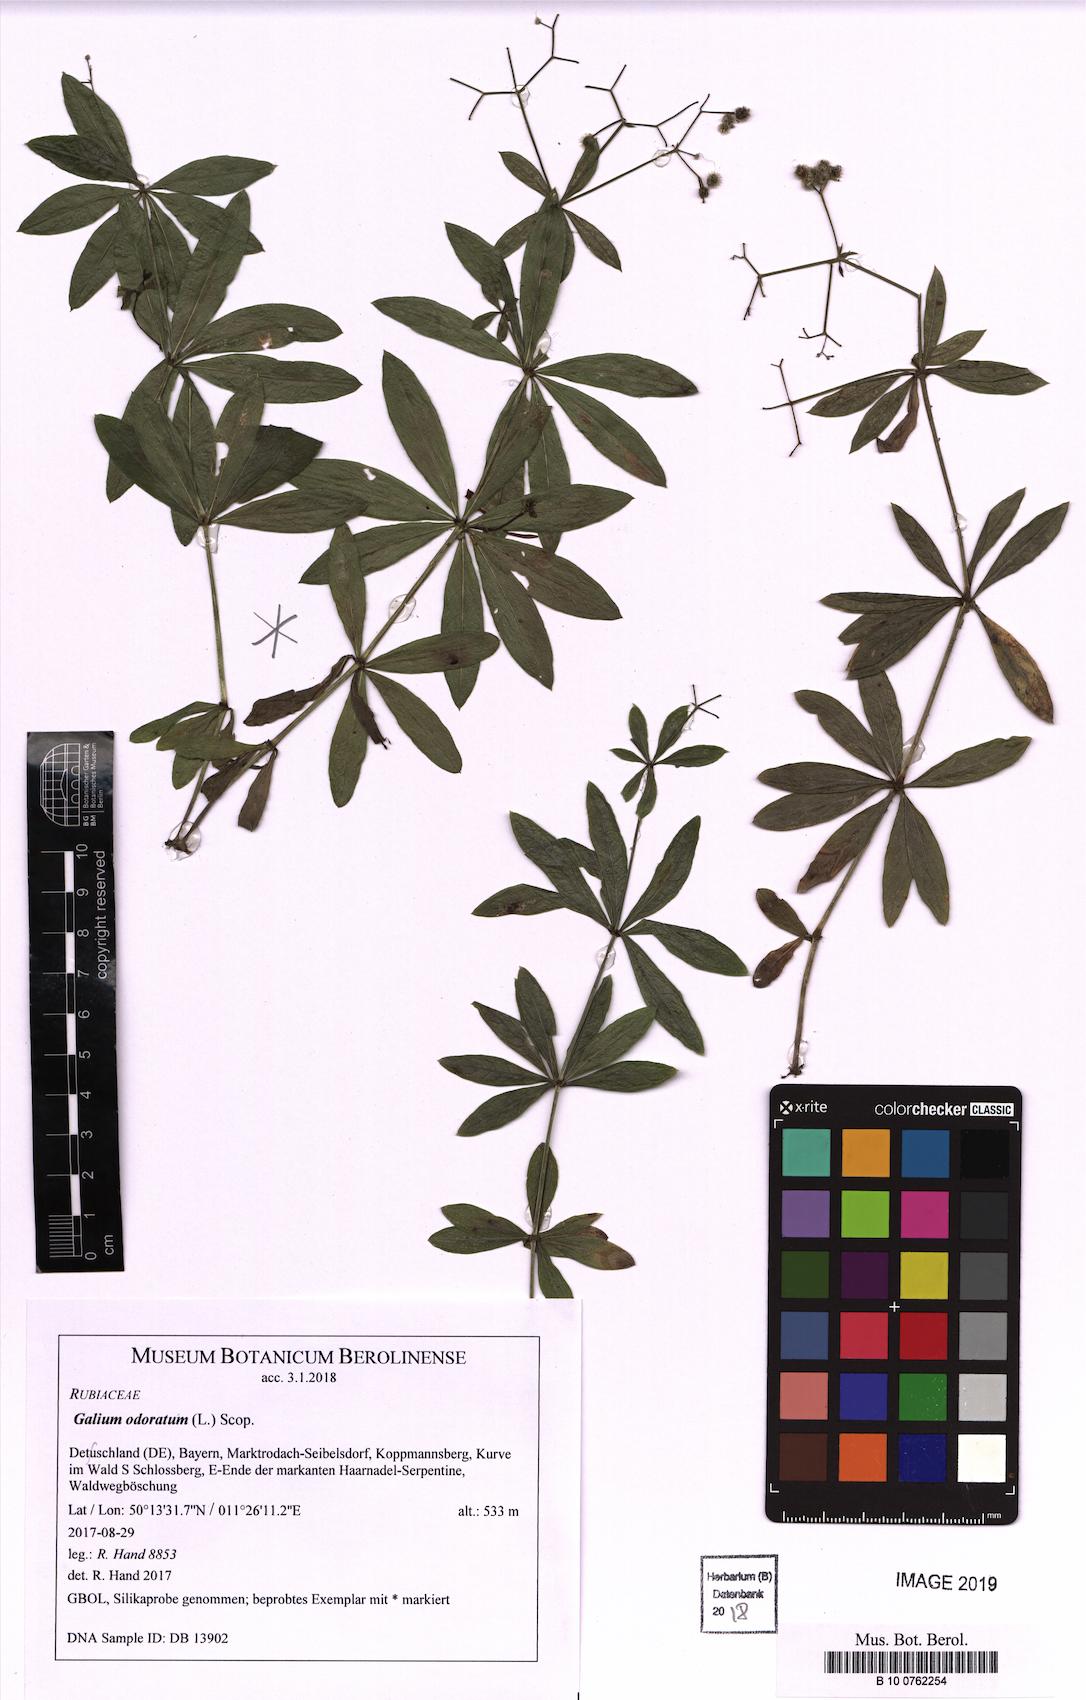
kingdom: Plantae
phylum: Tracheophyta
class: Magnoliopsida
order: Gentianales
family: Rubiaceae
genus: Galium
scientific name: Galium odoratum
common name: Sweet woodruff
